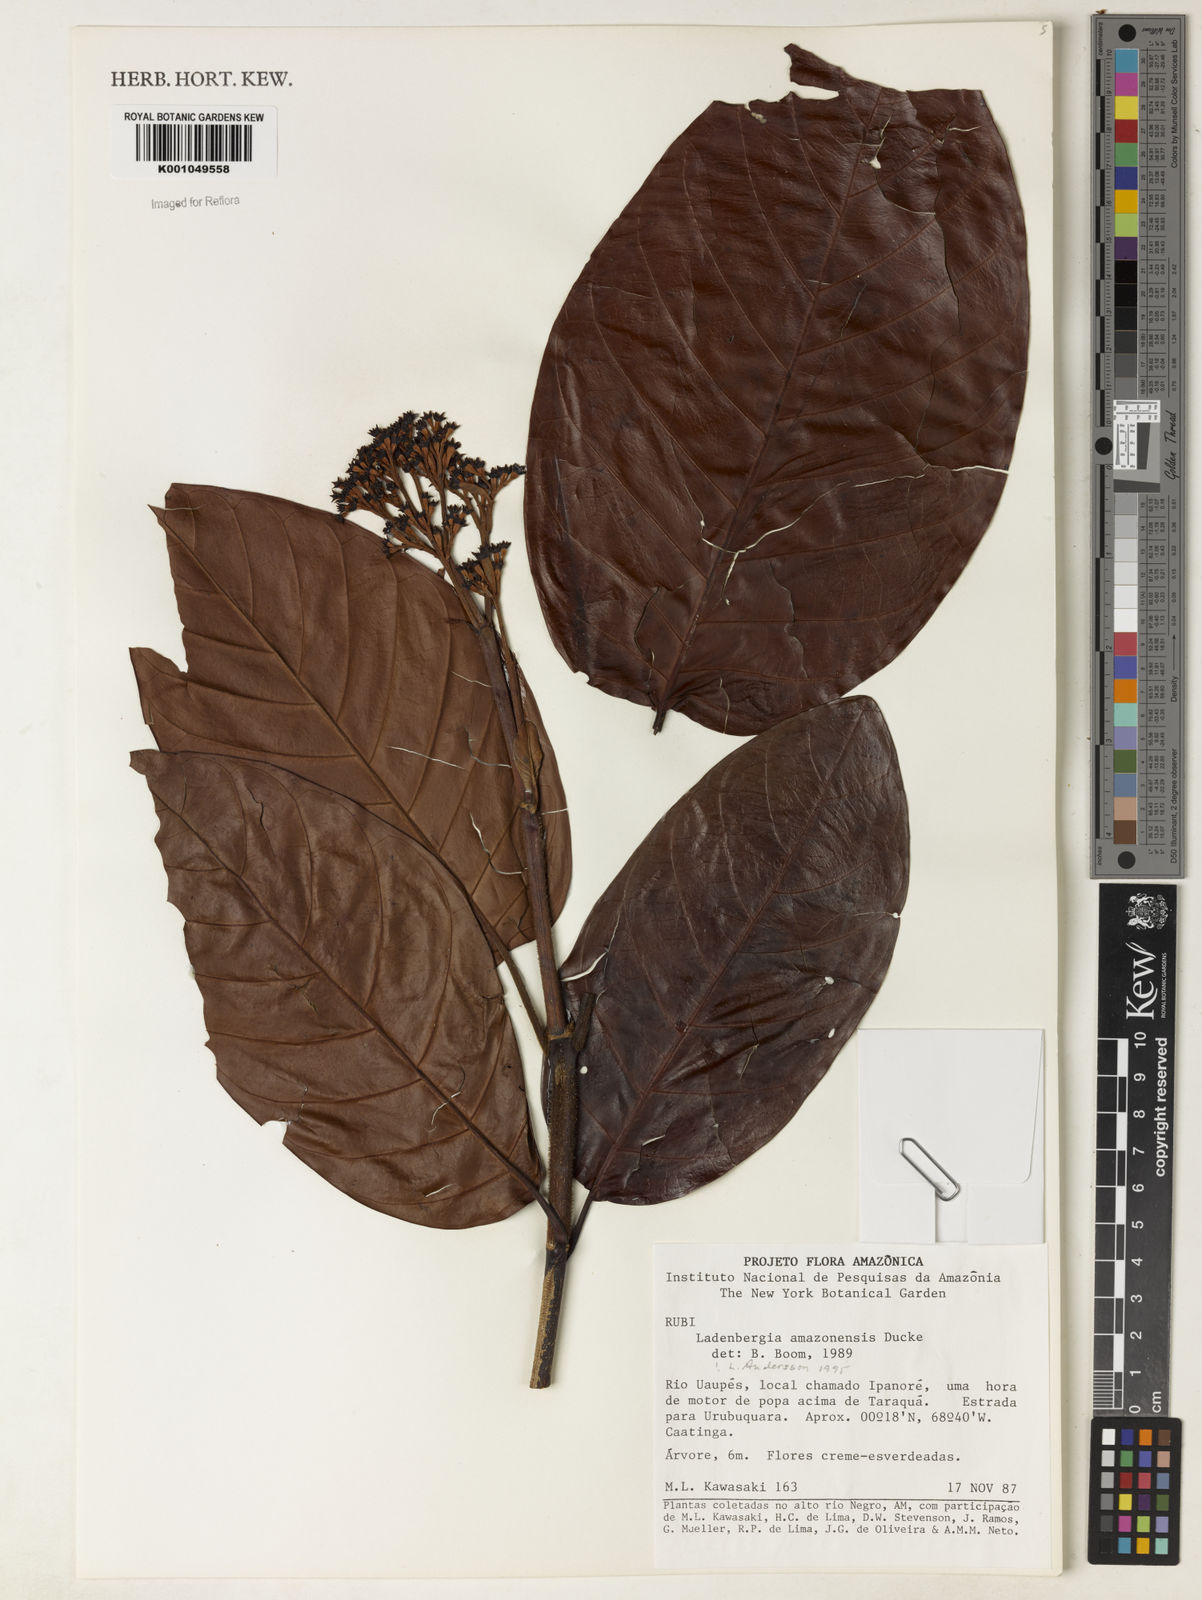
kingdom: Plantae
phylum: Tracheophyta
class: Magnoliopsida
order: Gentianales
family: Rubiaceae
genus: Ladenbergia
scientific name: Ladenbergia amazonensis
